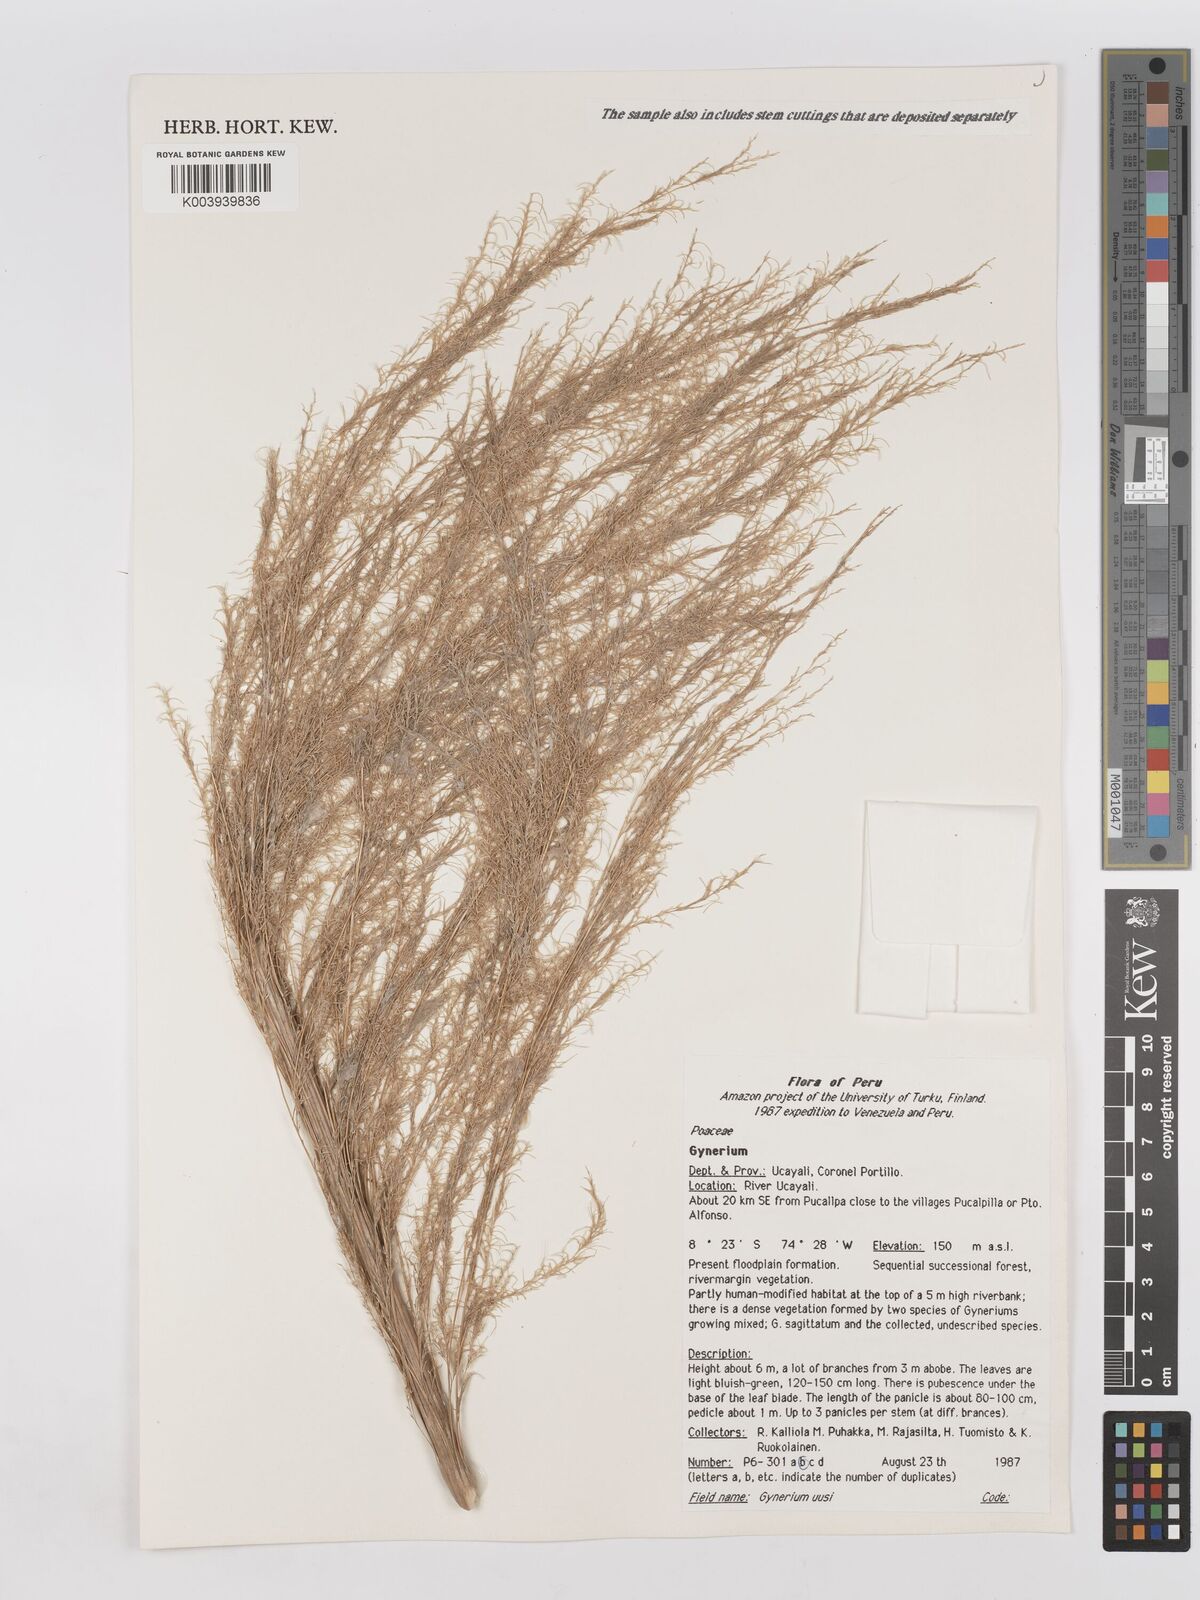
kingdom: Plantae
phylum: Tracheophyta
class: Liliopsida
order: Poales
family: Poaceae
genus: Gynerium
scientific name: Gynerium sagittatum
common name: Wild cane
